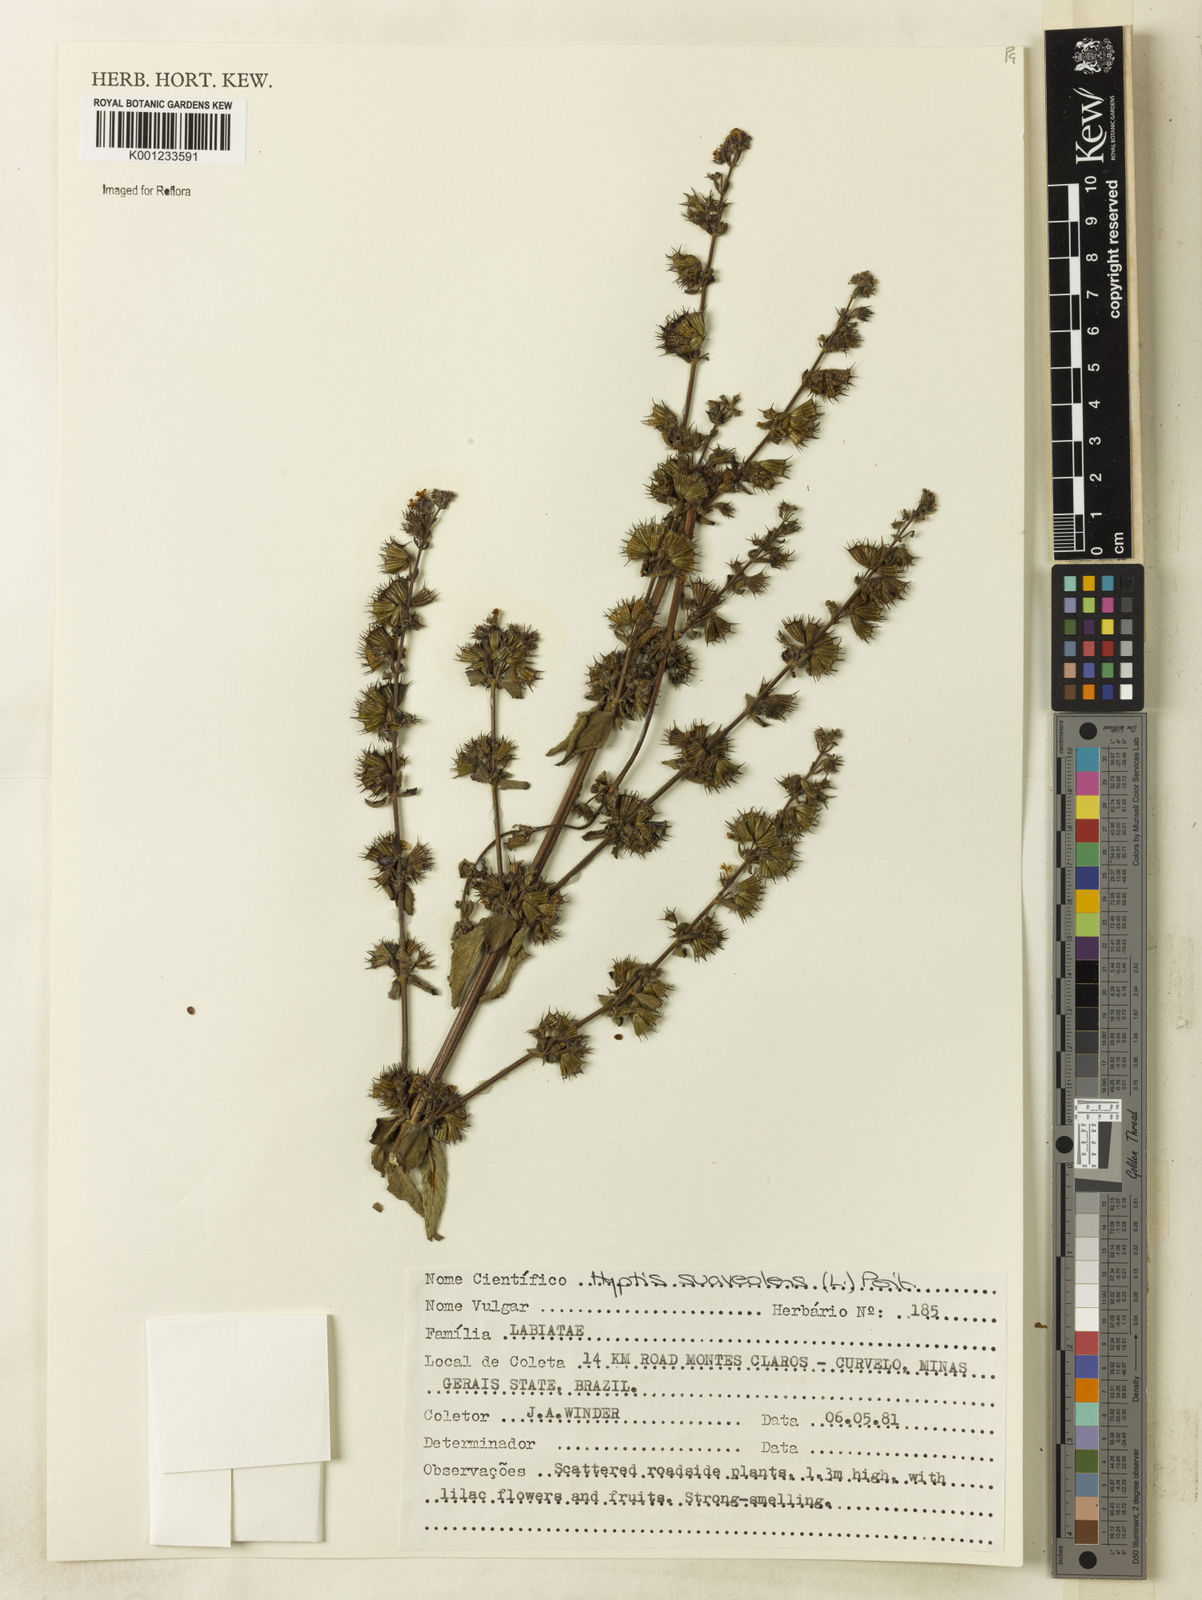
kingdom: Plantae
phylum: Tracheophyta
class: Magnoliopsida
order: Lamiales
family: Lamiaceae
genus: Mesosphaerum
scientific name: Mesosphaerum suaveolens
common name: Pignut
